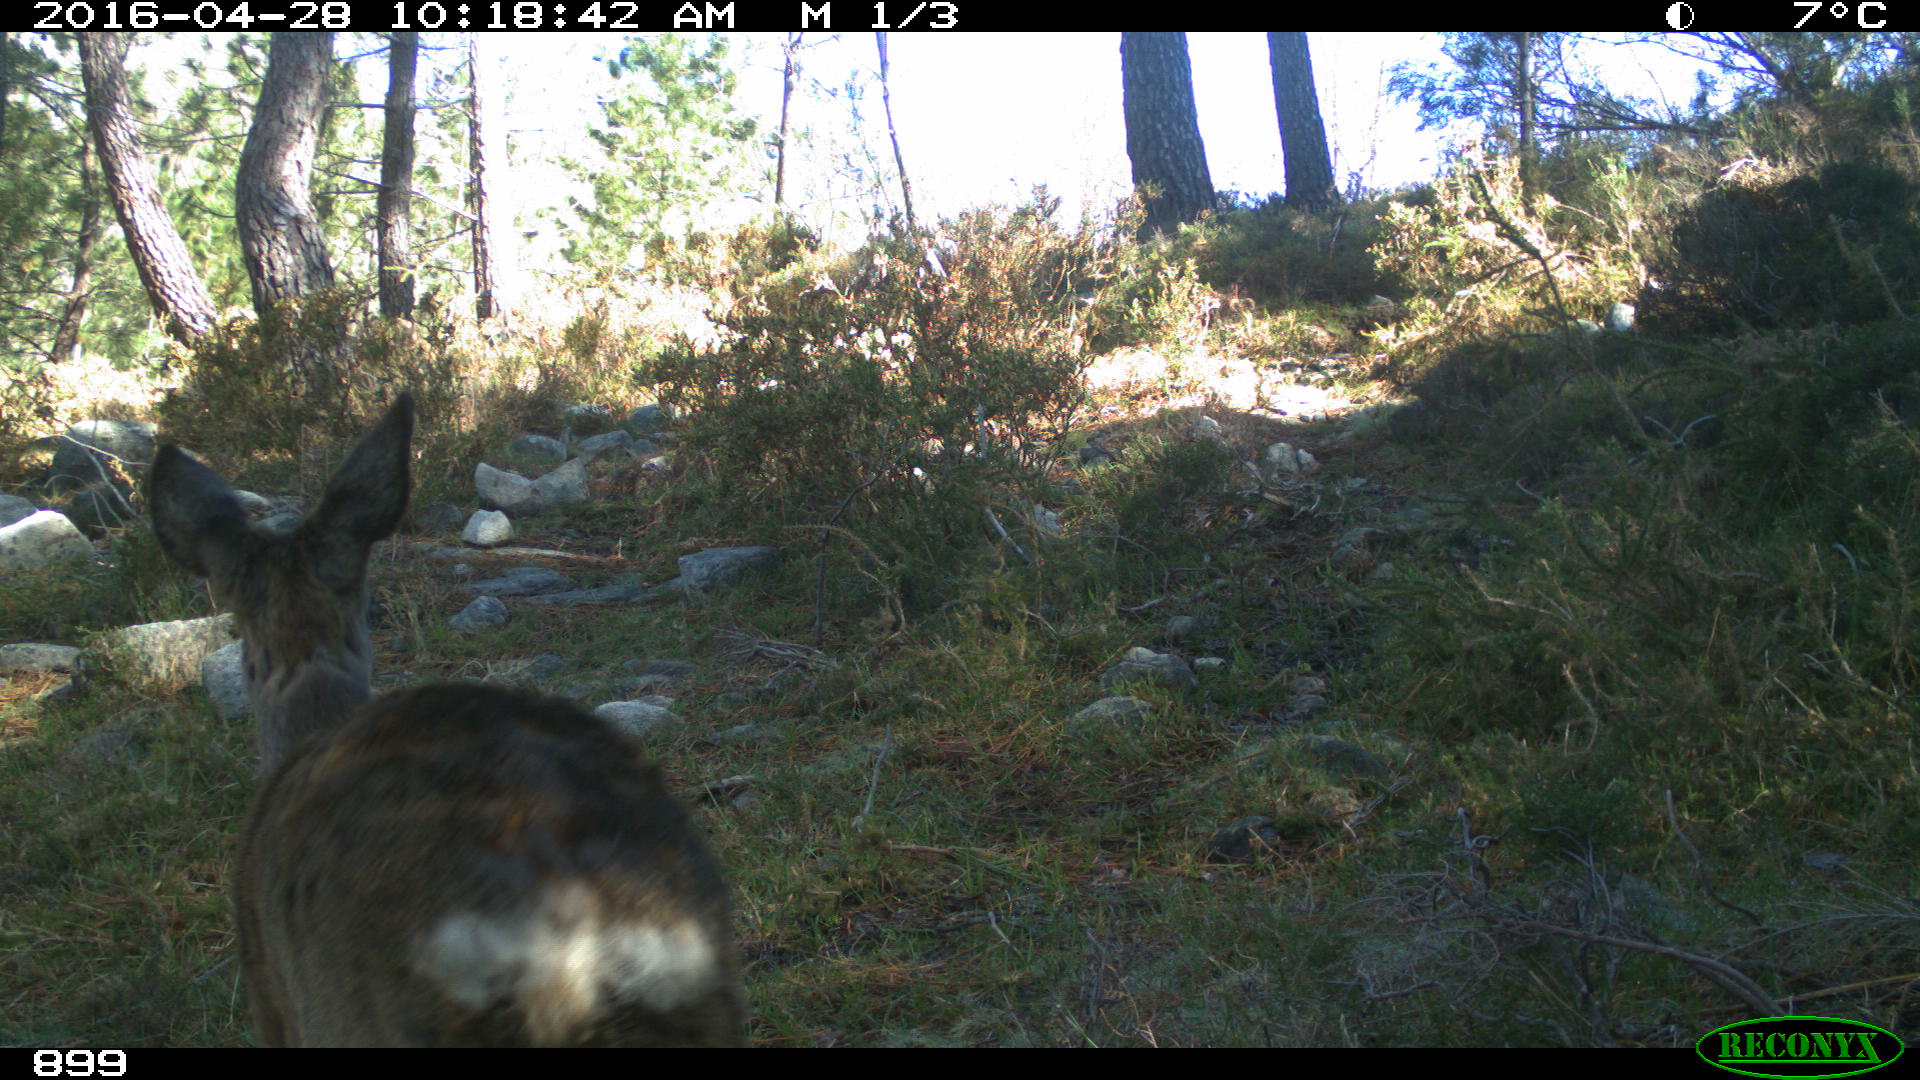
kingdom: Animalia
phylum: Chordata
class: Mammalia
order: Artiodactyla
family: Cervidae
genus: Capreolus
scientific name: Capreolus capreolus
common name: Western roe deer
